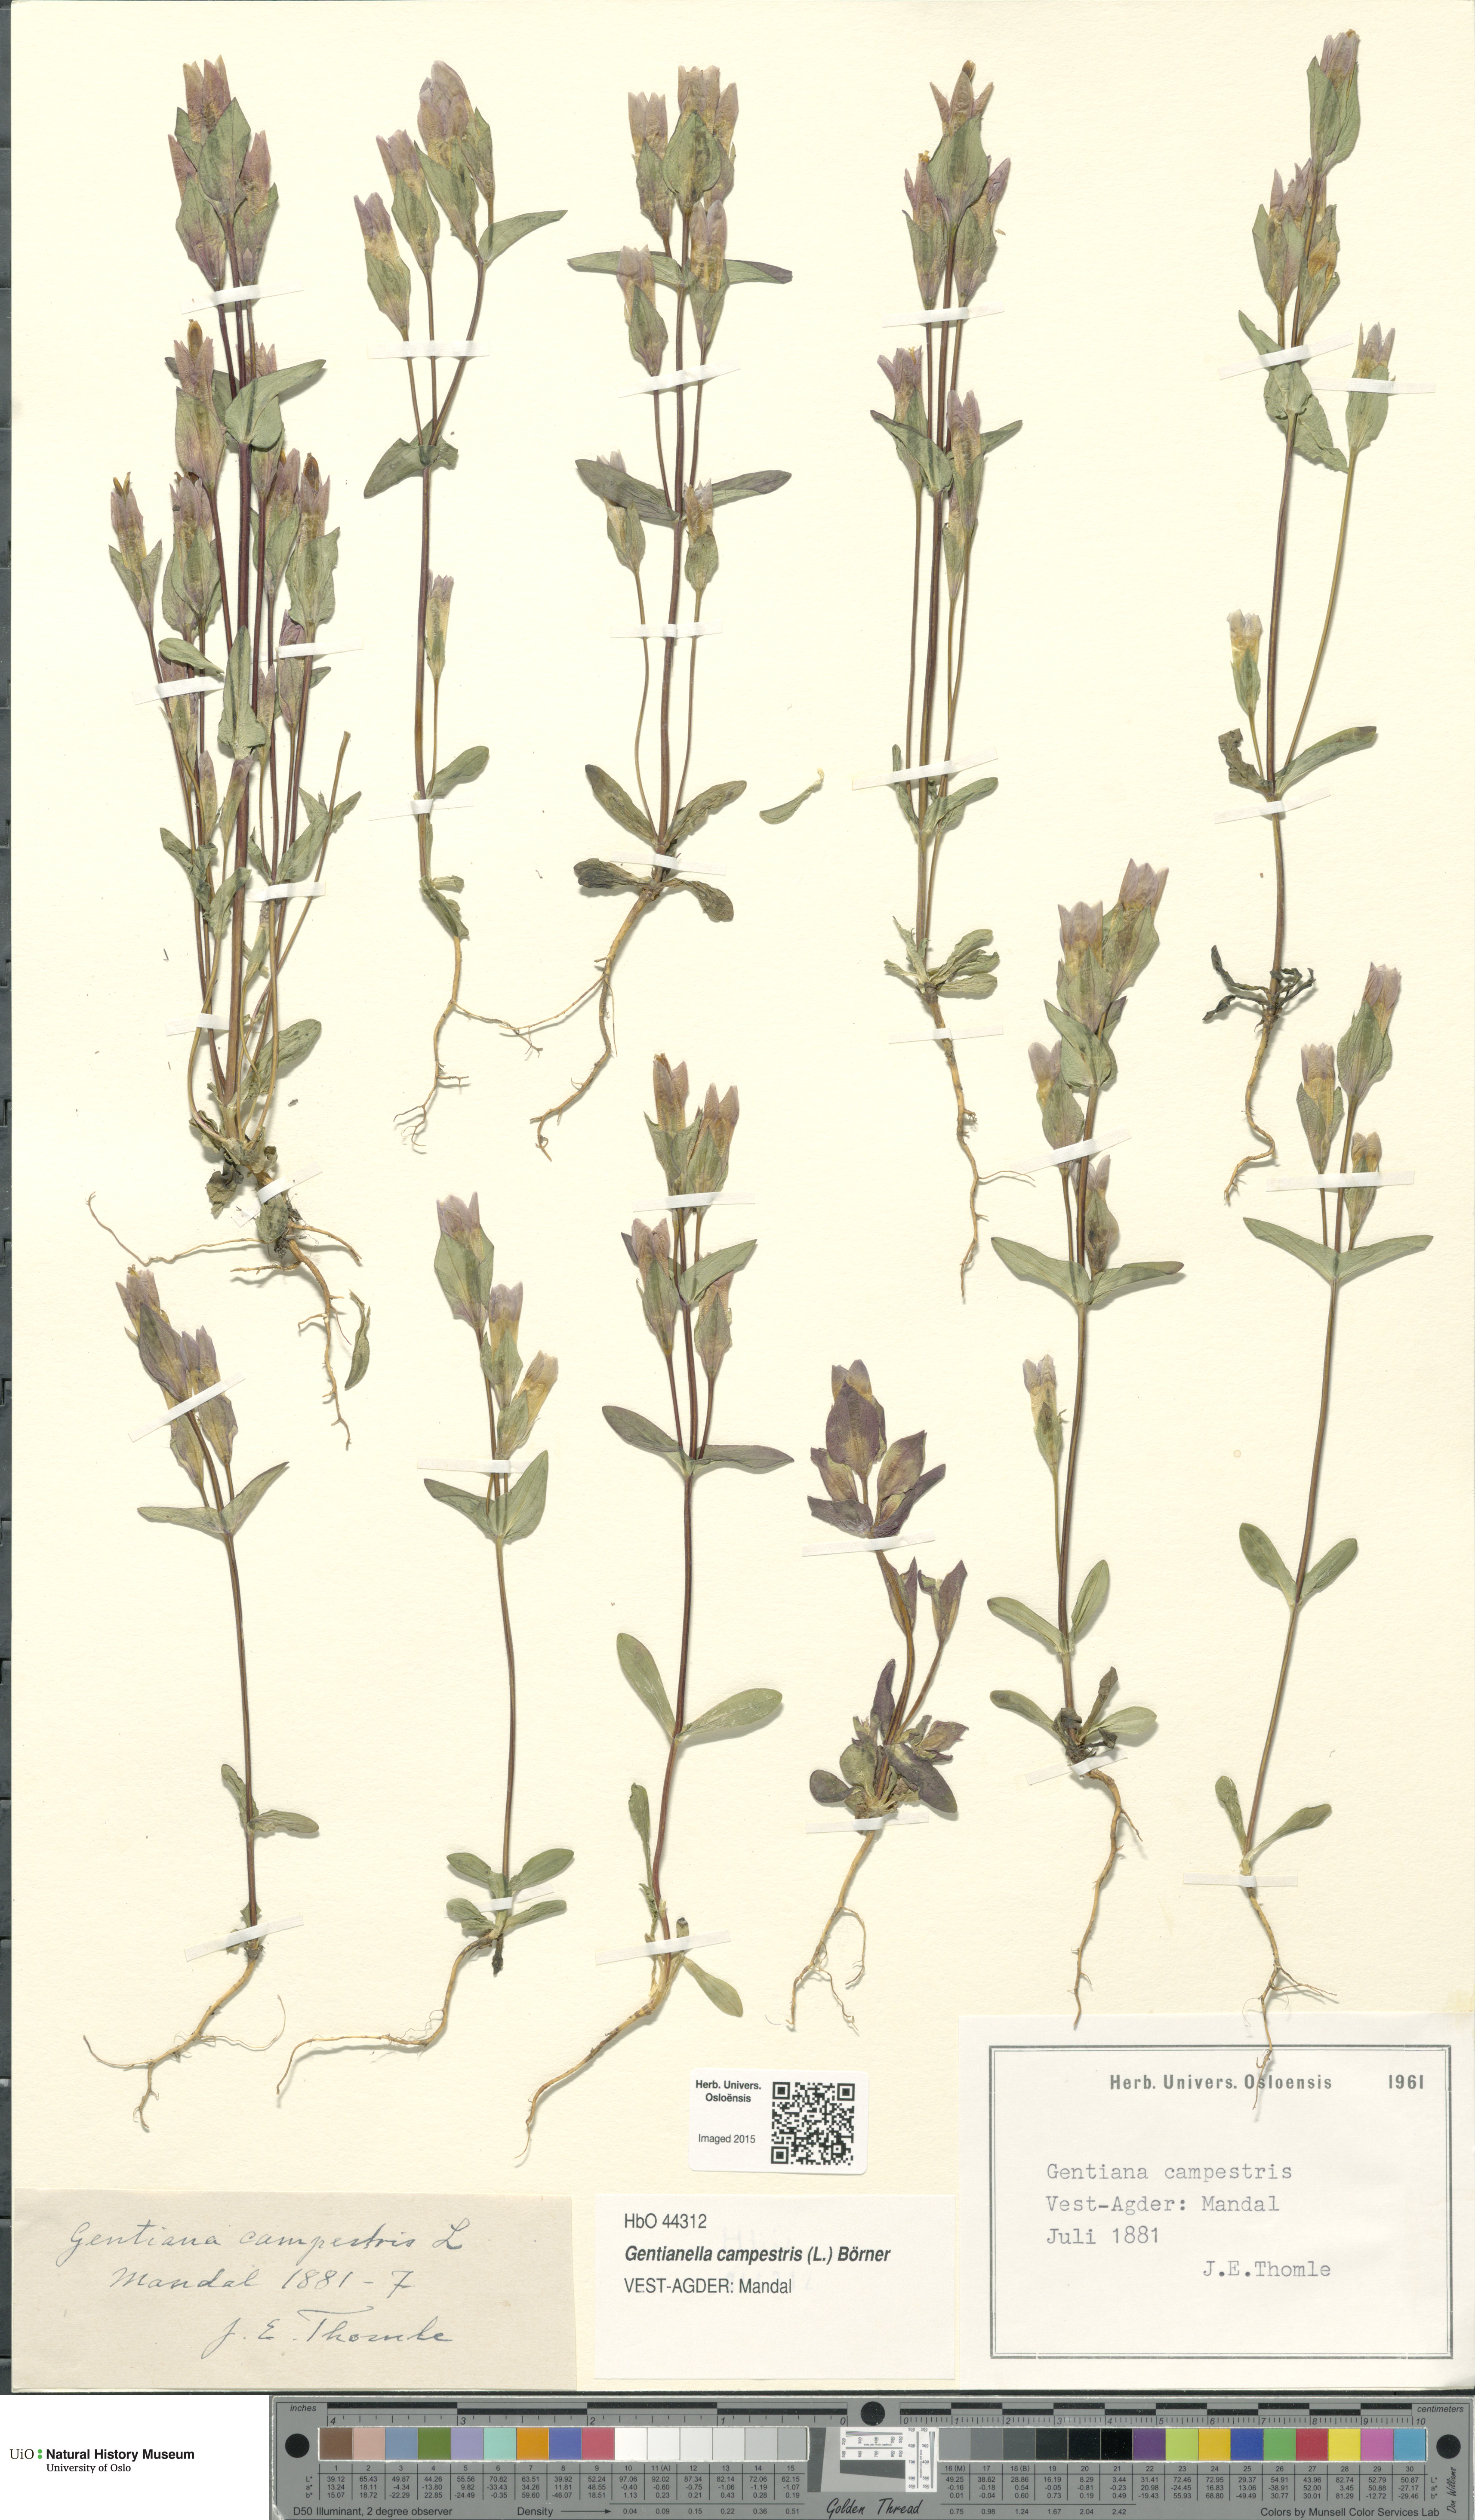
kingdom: Plantae
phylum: Tracheophyta
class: Magnoliopsida
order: Gentianales
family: Gentianaceae
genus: Gentianella
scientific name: Gentianella campestris
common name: Field gentian
